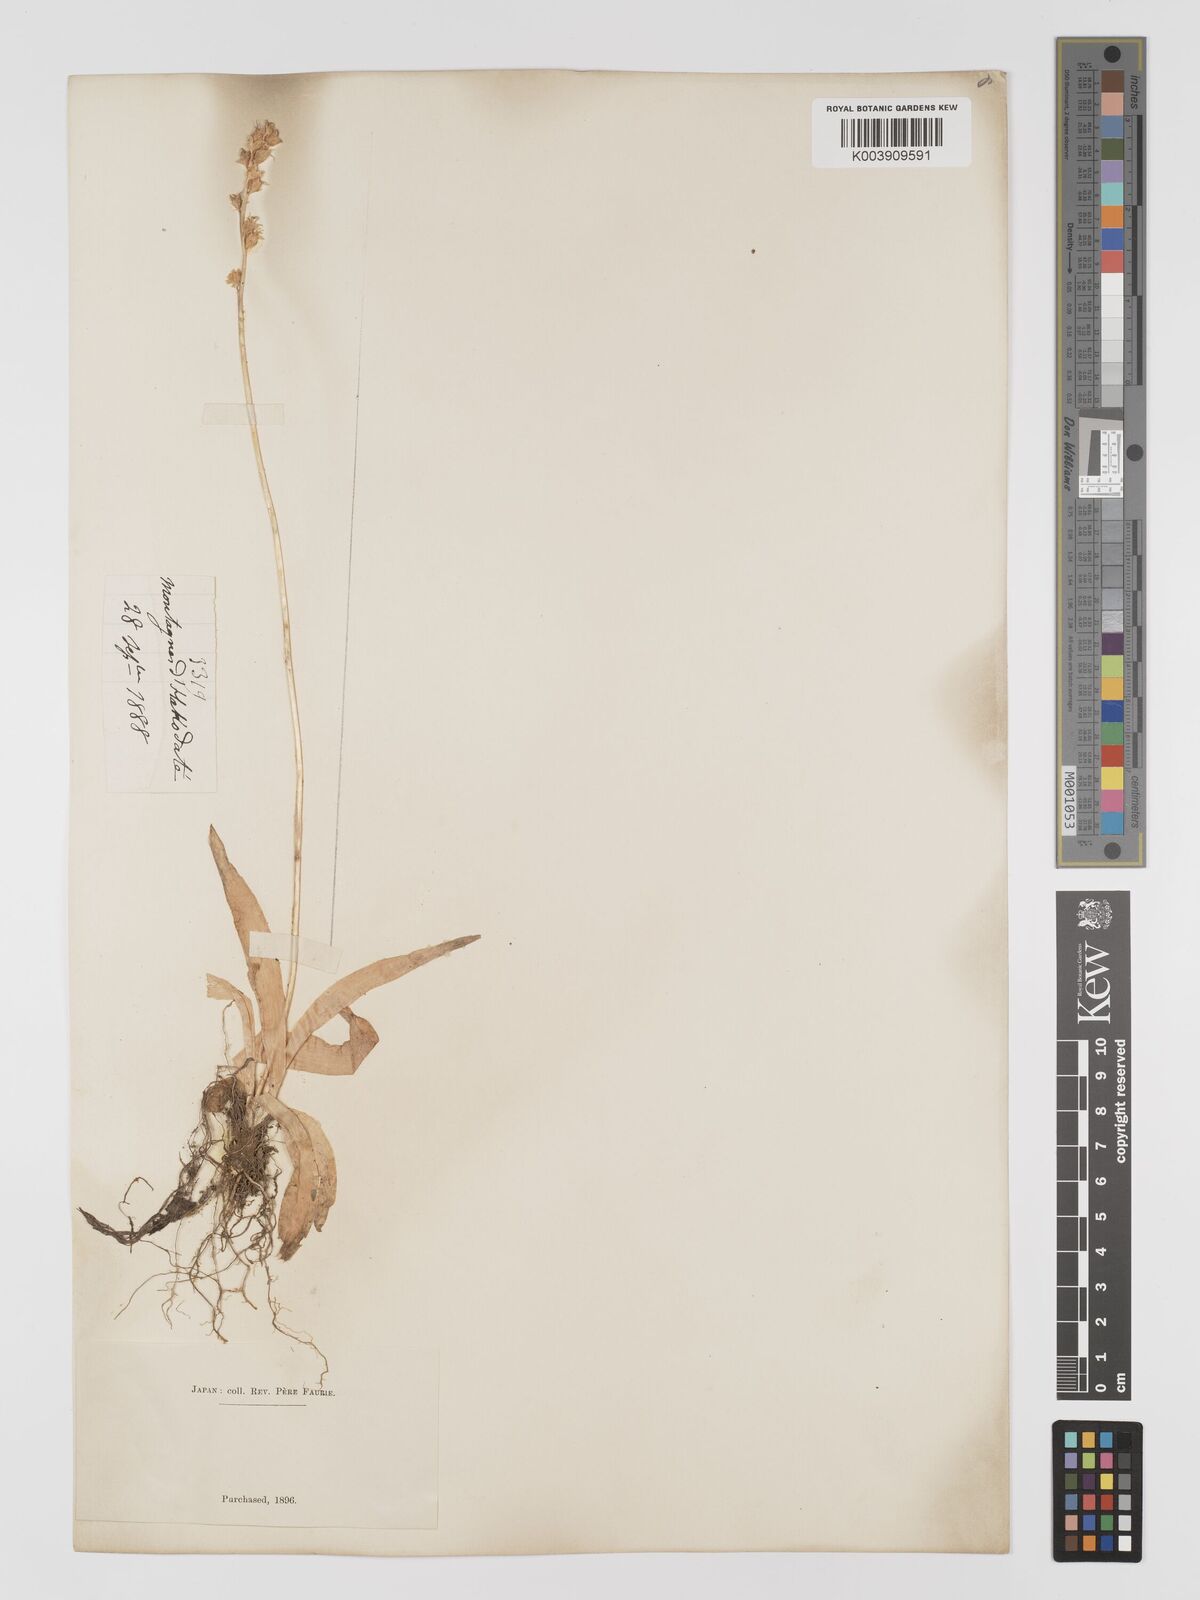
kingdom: Plantae
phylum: Tracheophyta
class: Liliopsida
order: Dioscoreales
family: Nartheciaceae
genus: Metanarthecium
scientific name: Metanarthecium luteoviride
